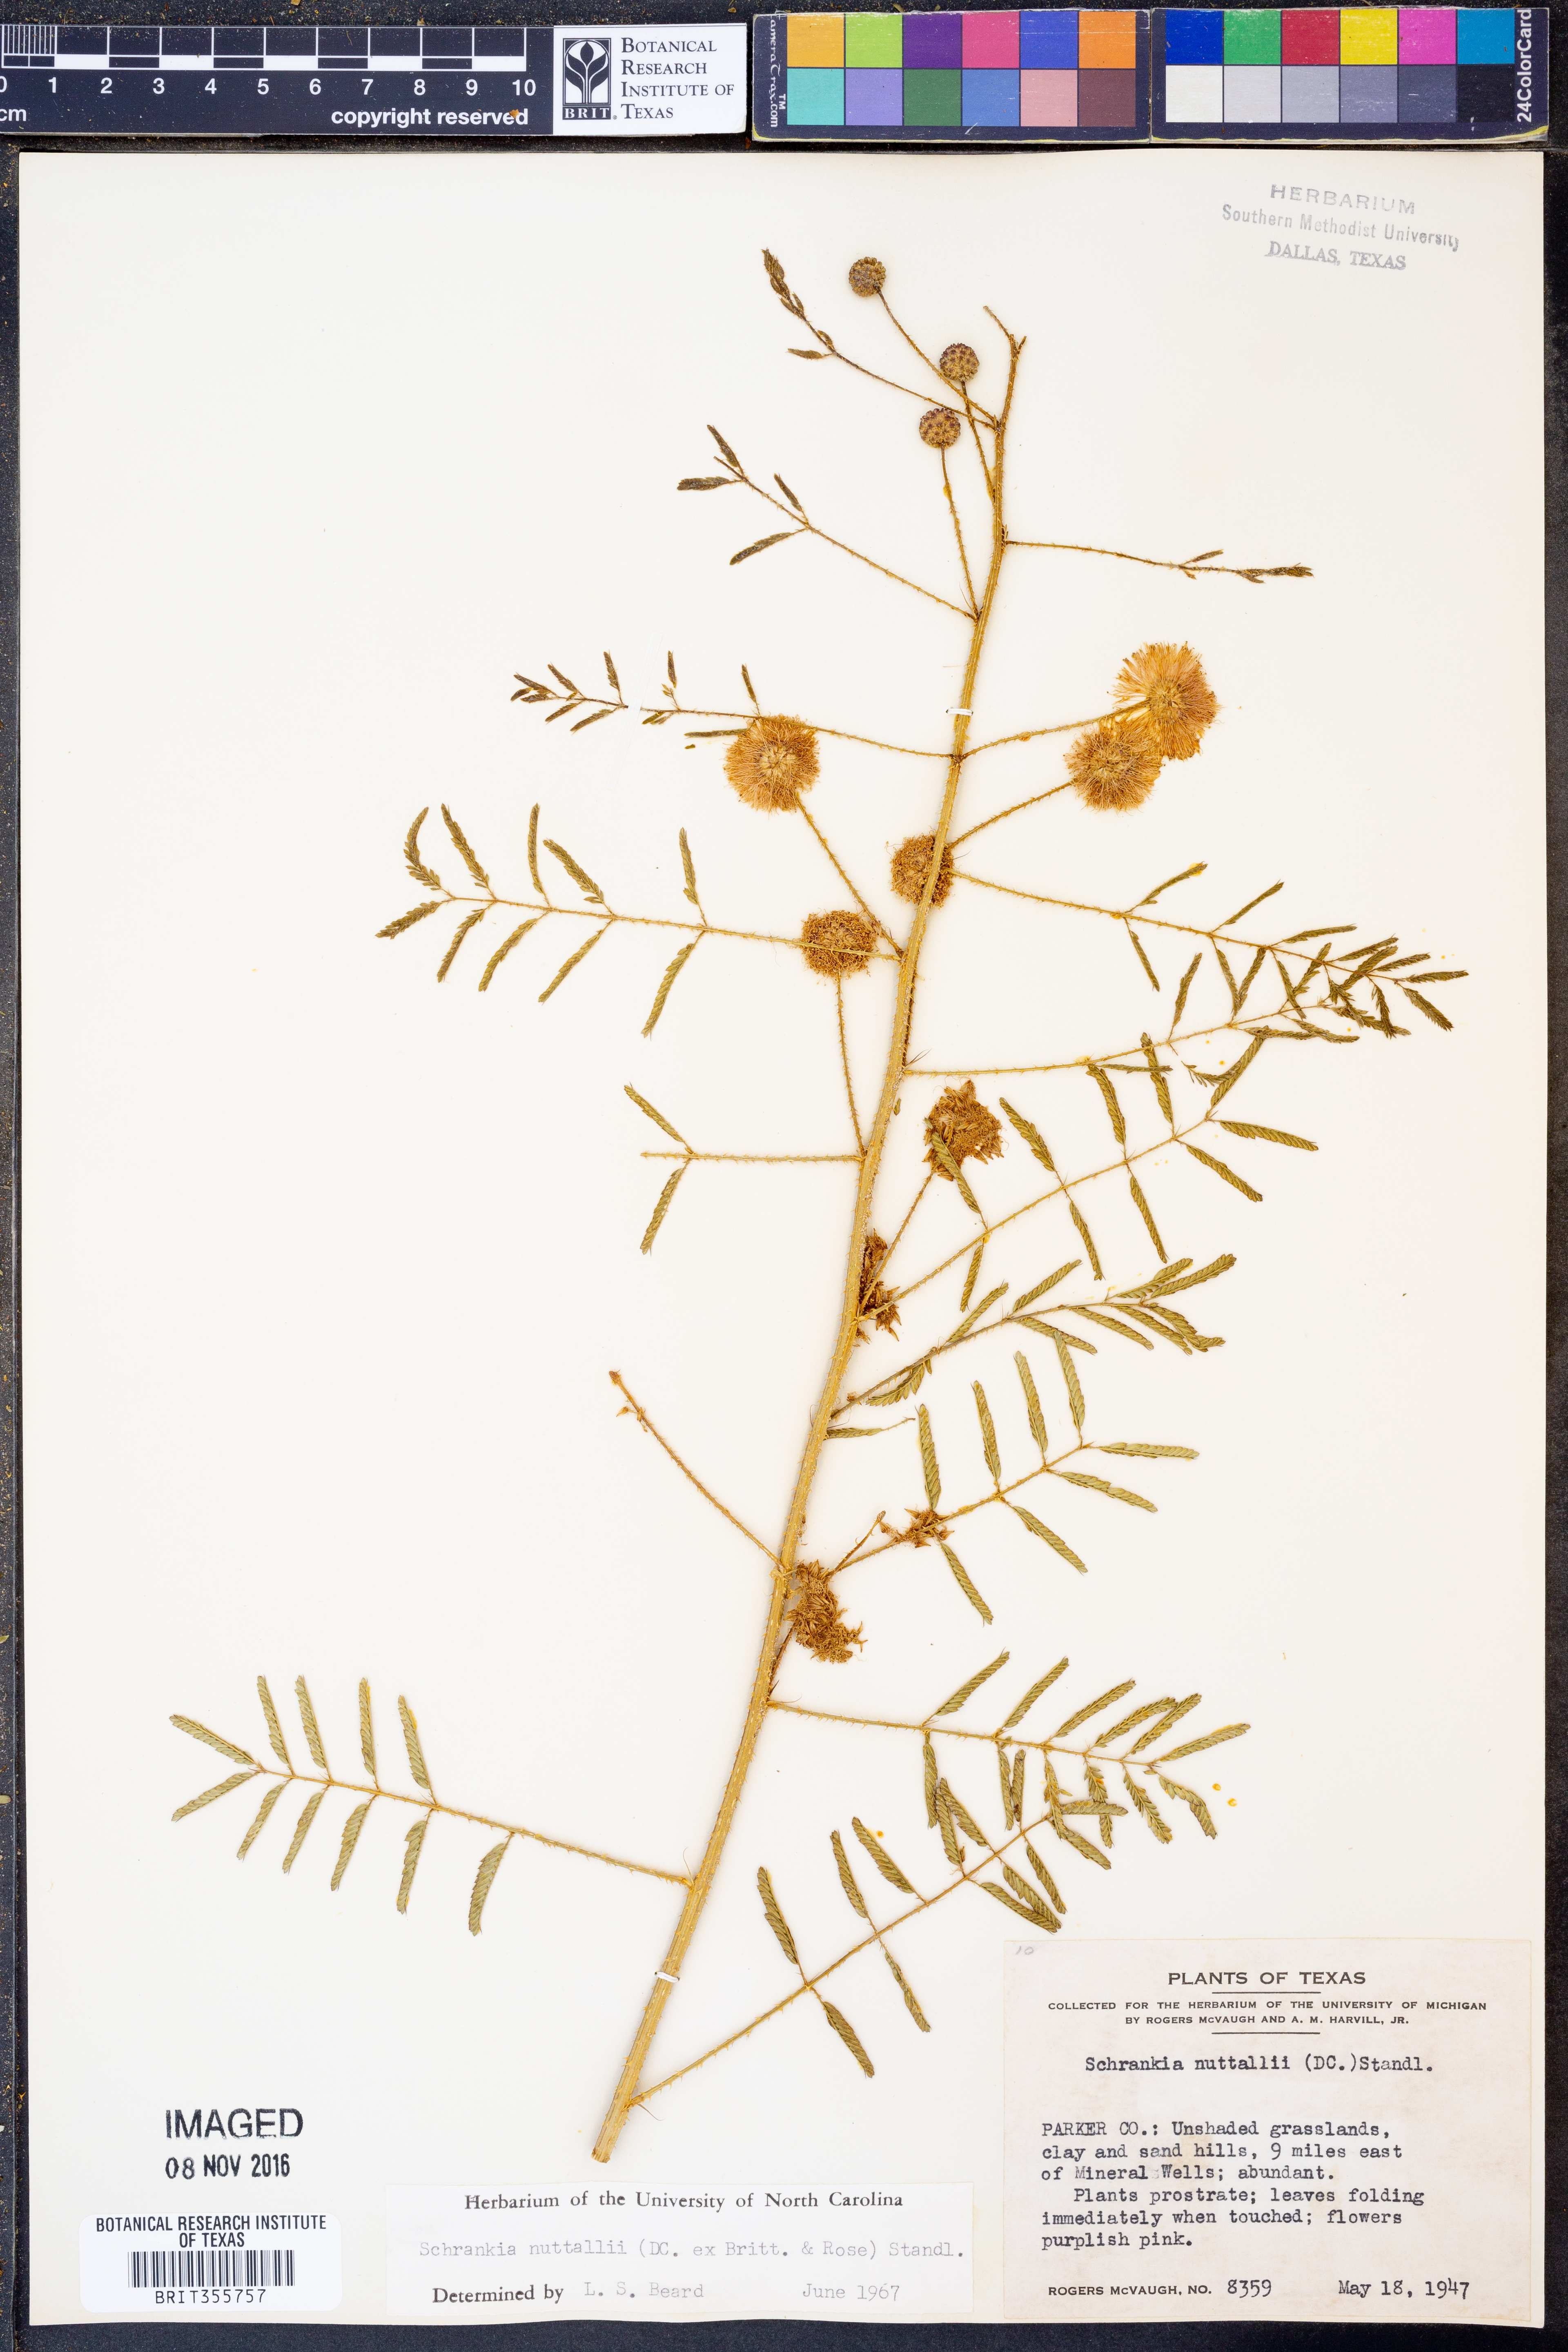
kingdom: Plantae
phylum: Tracheophyta
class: Magnoliopsida
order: Fabales
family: Fabaceae
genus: Mimosa
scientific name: Mimosa quadrivalvis
